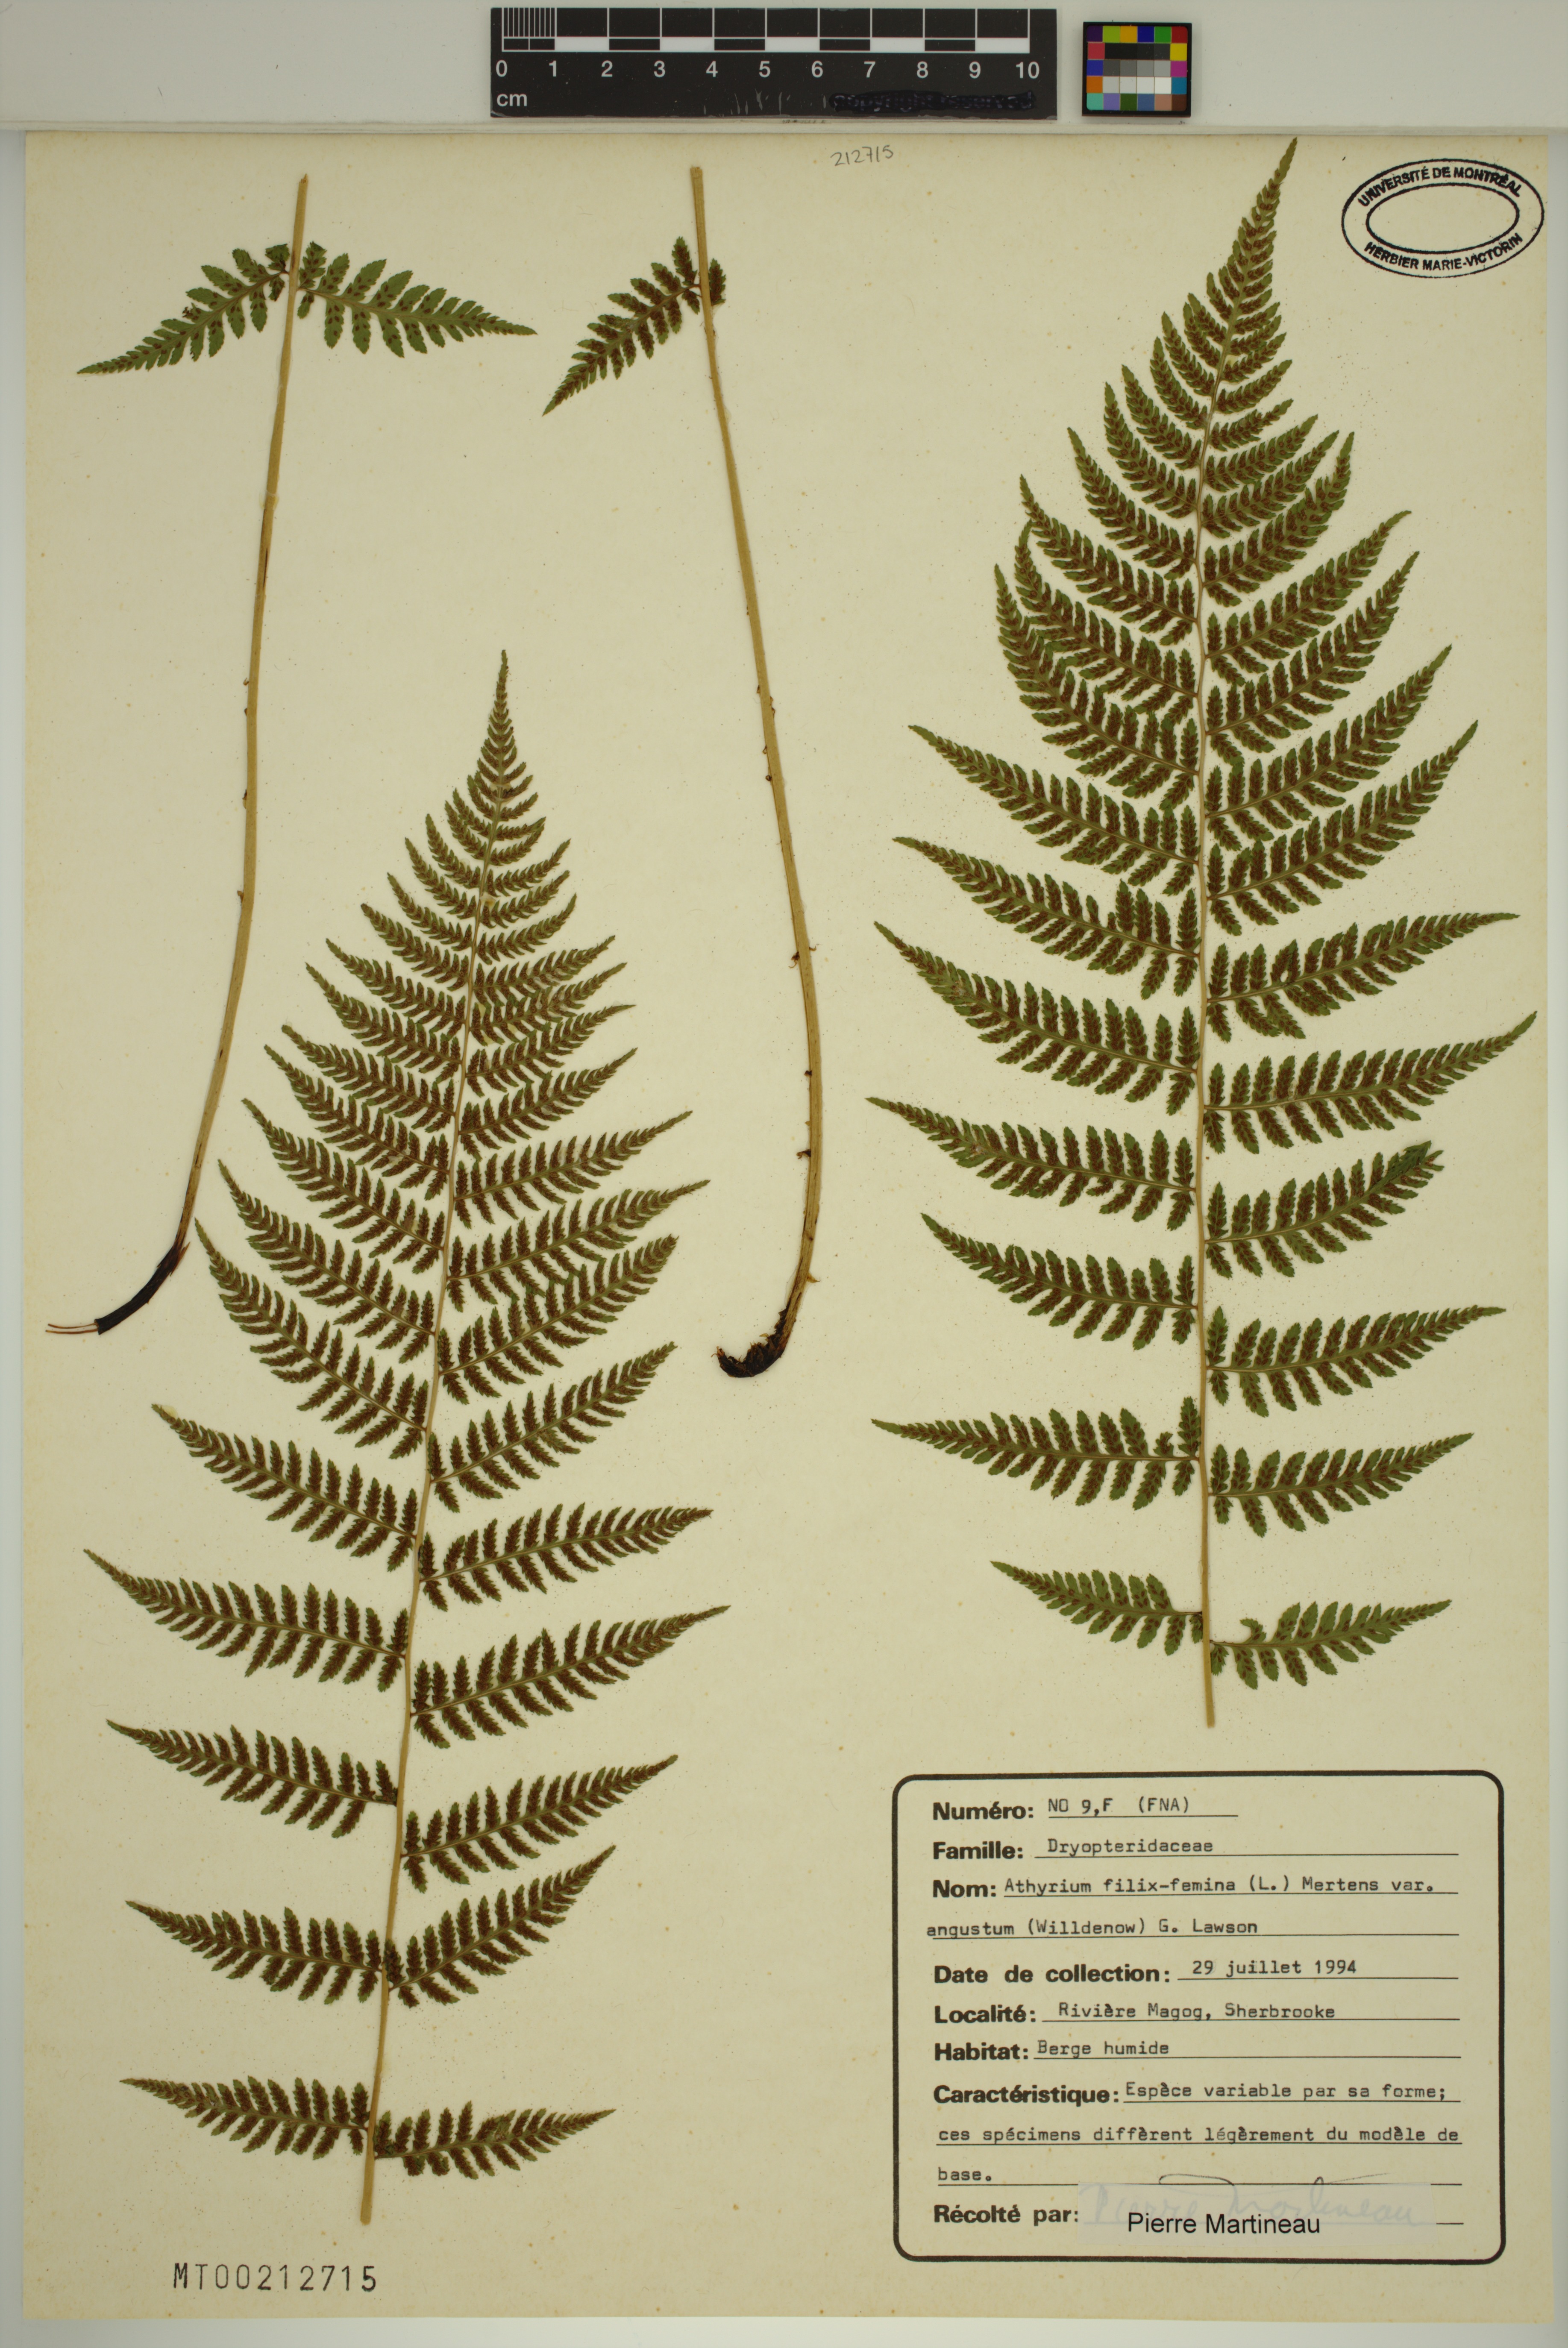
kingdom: Plantae
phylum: Tracheophyta
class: Polypodiopsida
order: Polypodiales
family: Athyriaceae
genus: Athyrium
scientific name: Athyrium angustum
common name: Northern lady fern
